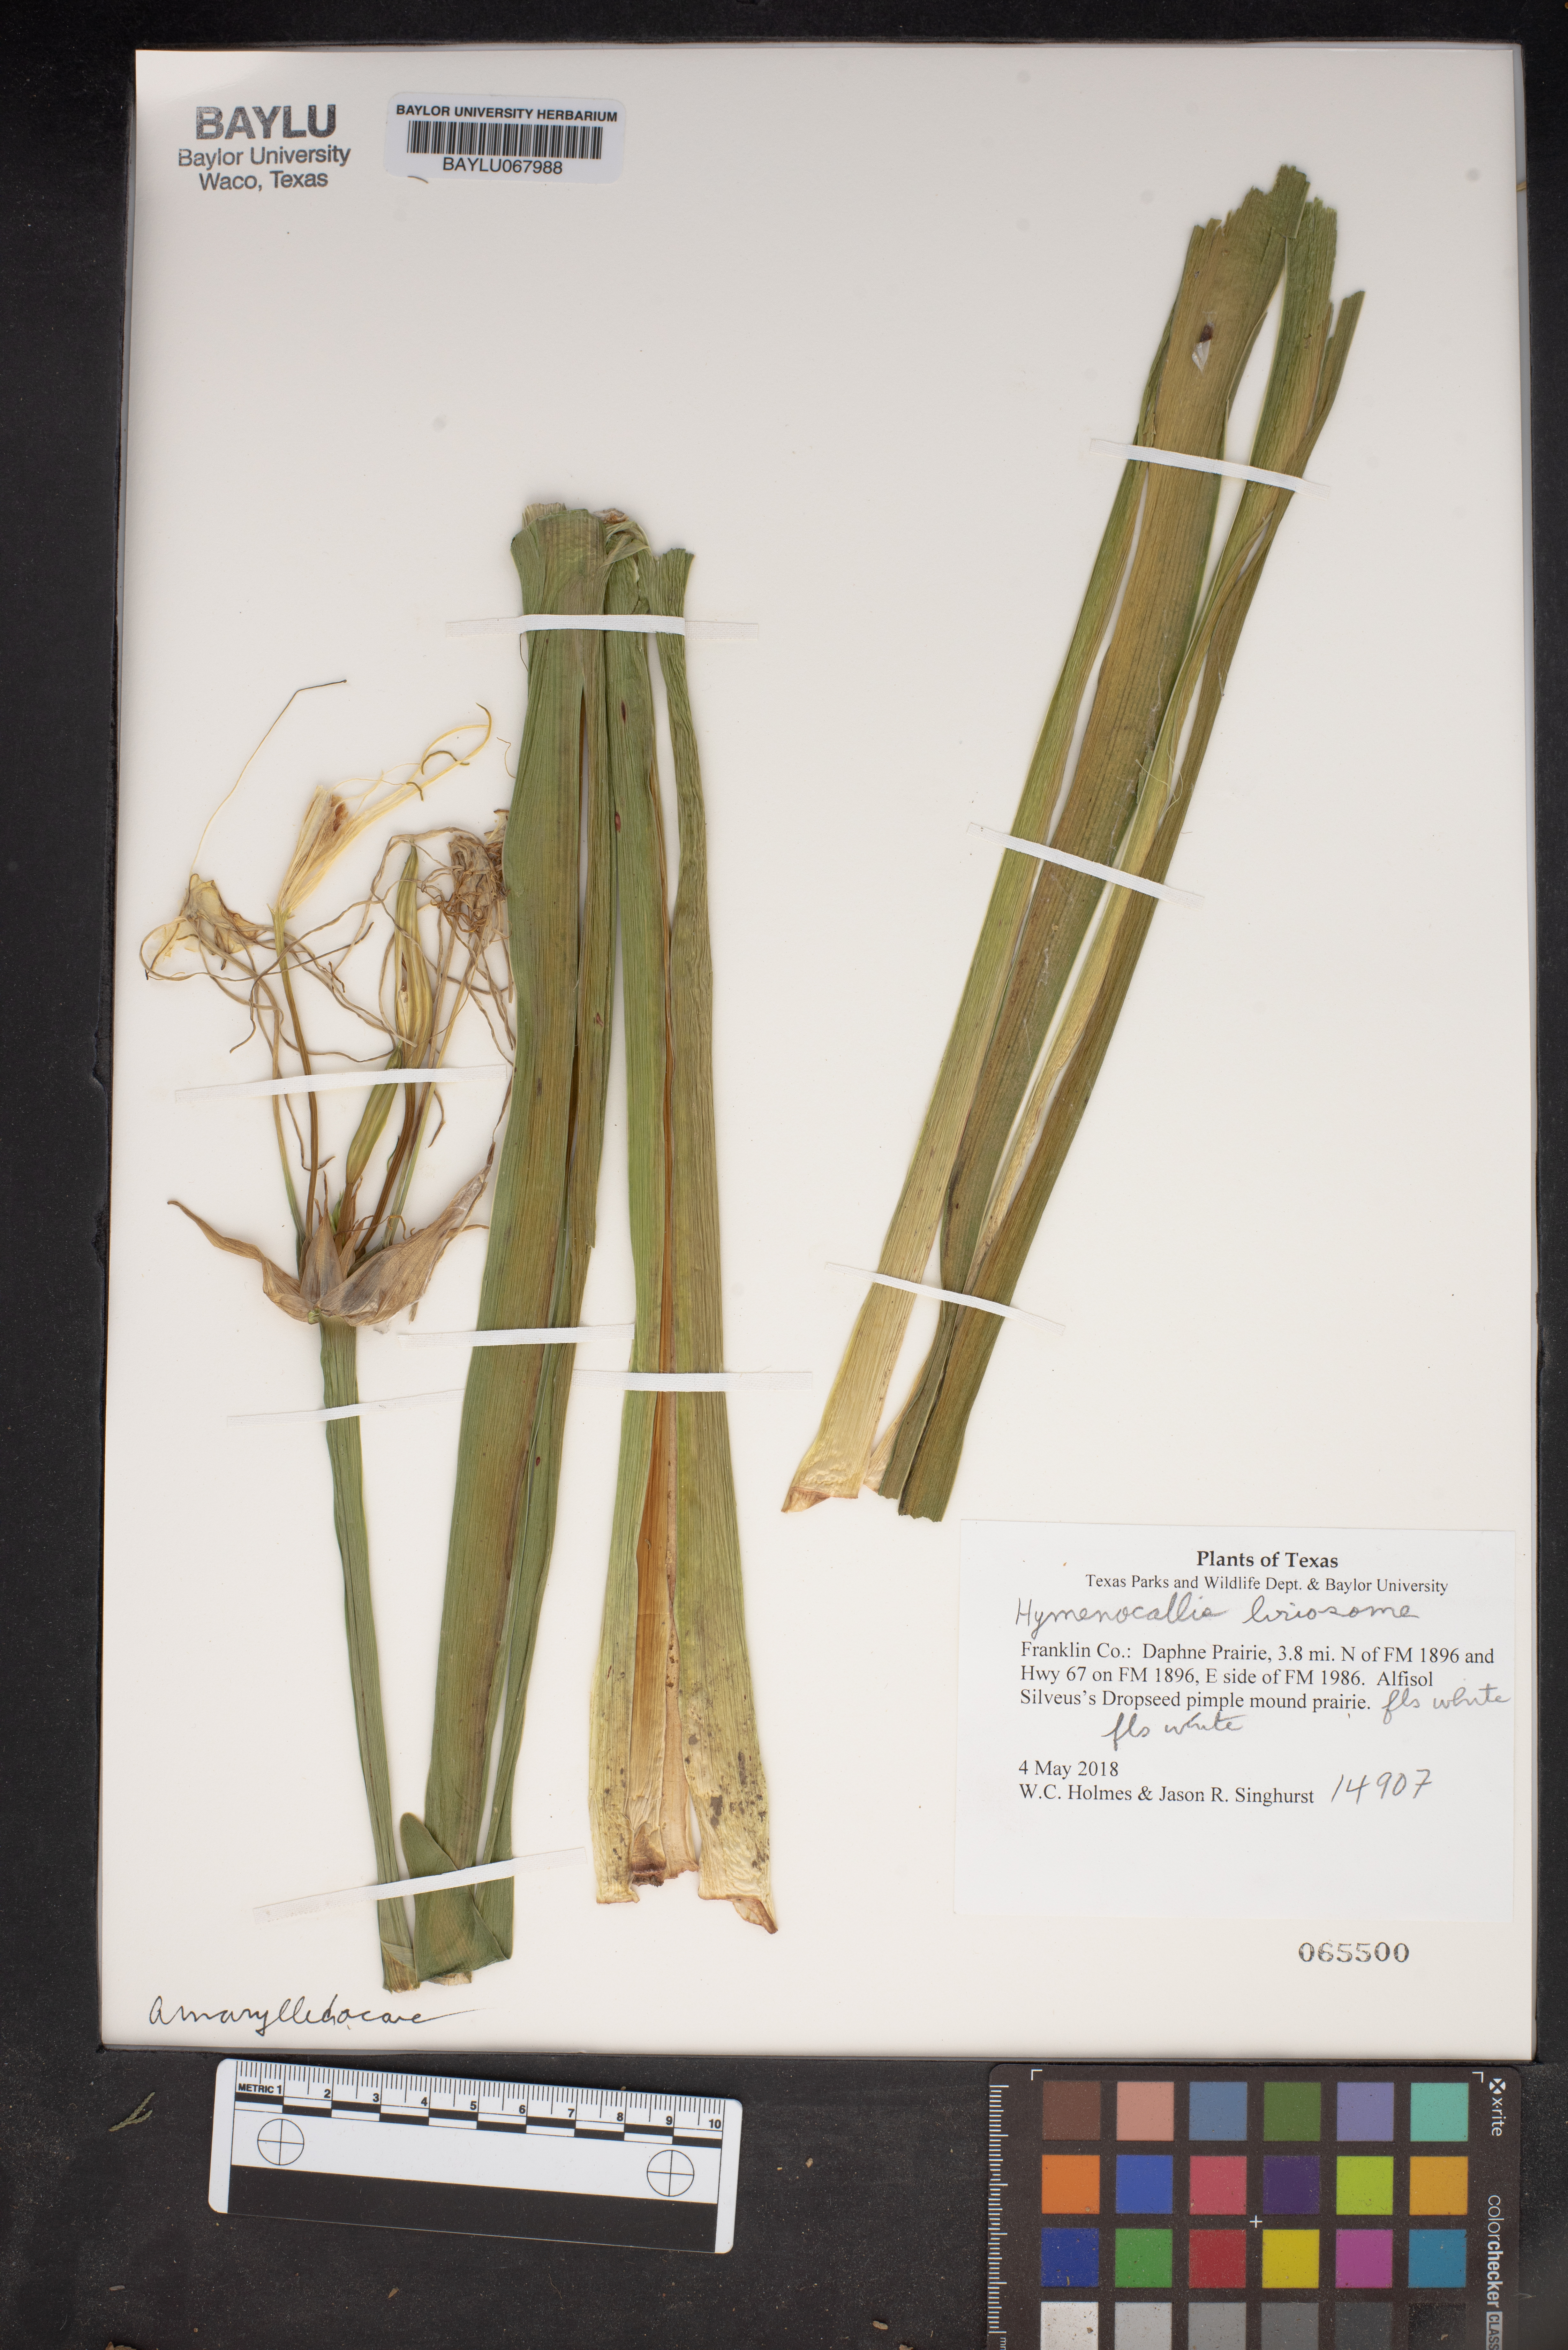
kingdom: Plantae
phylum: Tracheophyta
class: Liliopsida
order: Asparagales
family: Amaryllidaceae
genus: Hymenocallis
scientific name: Hymenocallis liriosme
